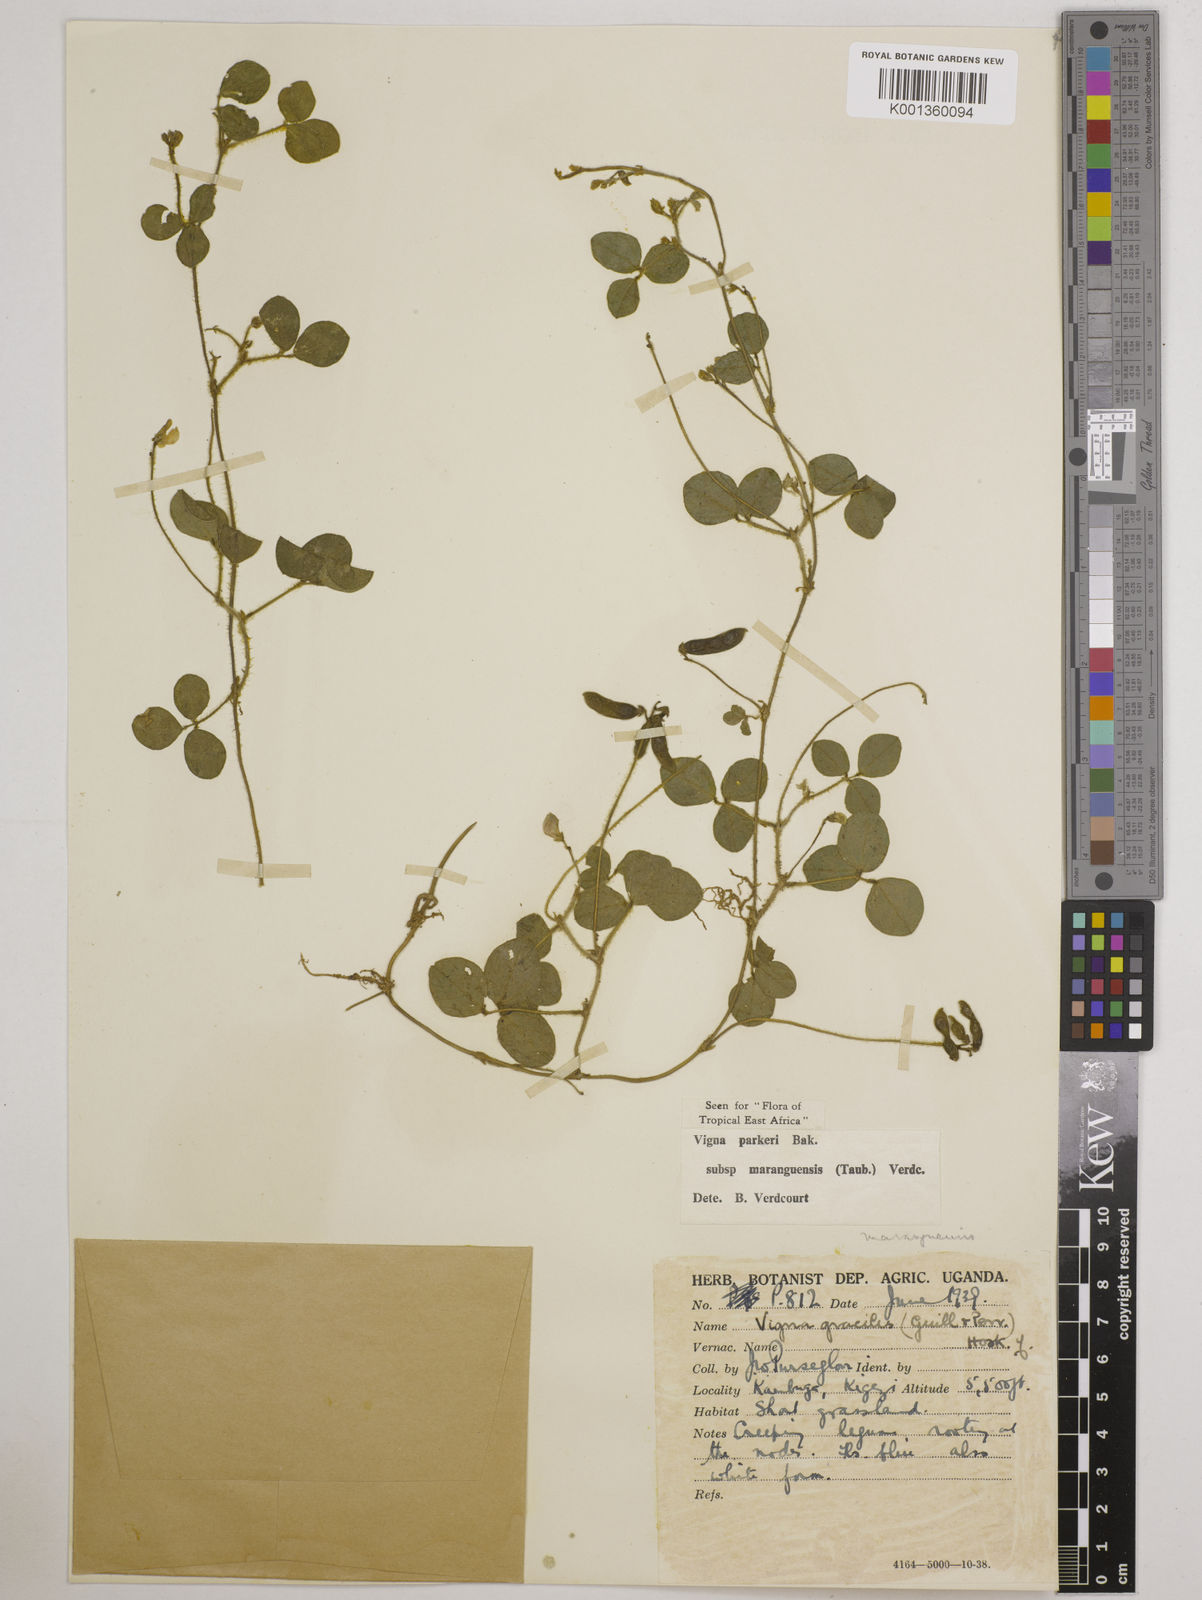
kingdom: Plantae
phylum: Tracheophyta
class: Magnoliopsida
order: Fabales
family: Fabaceae
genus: Vigna
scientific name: Vigna parkeri
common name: Creeping vigna
